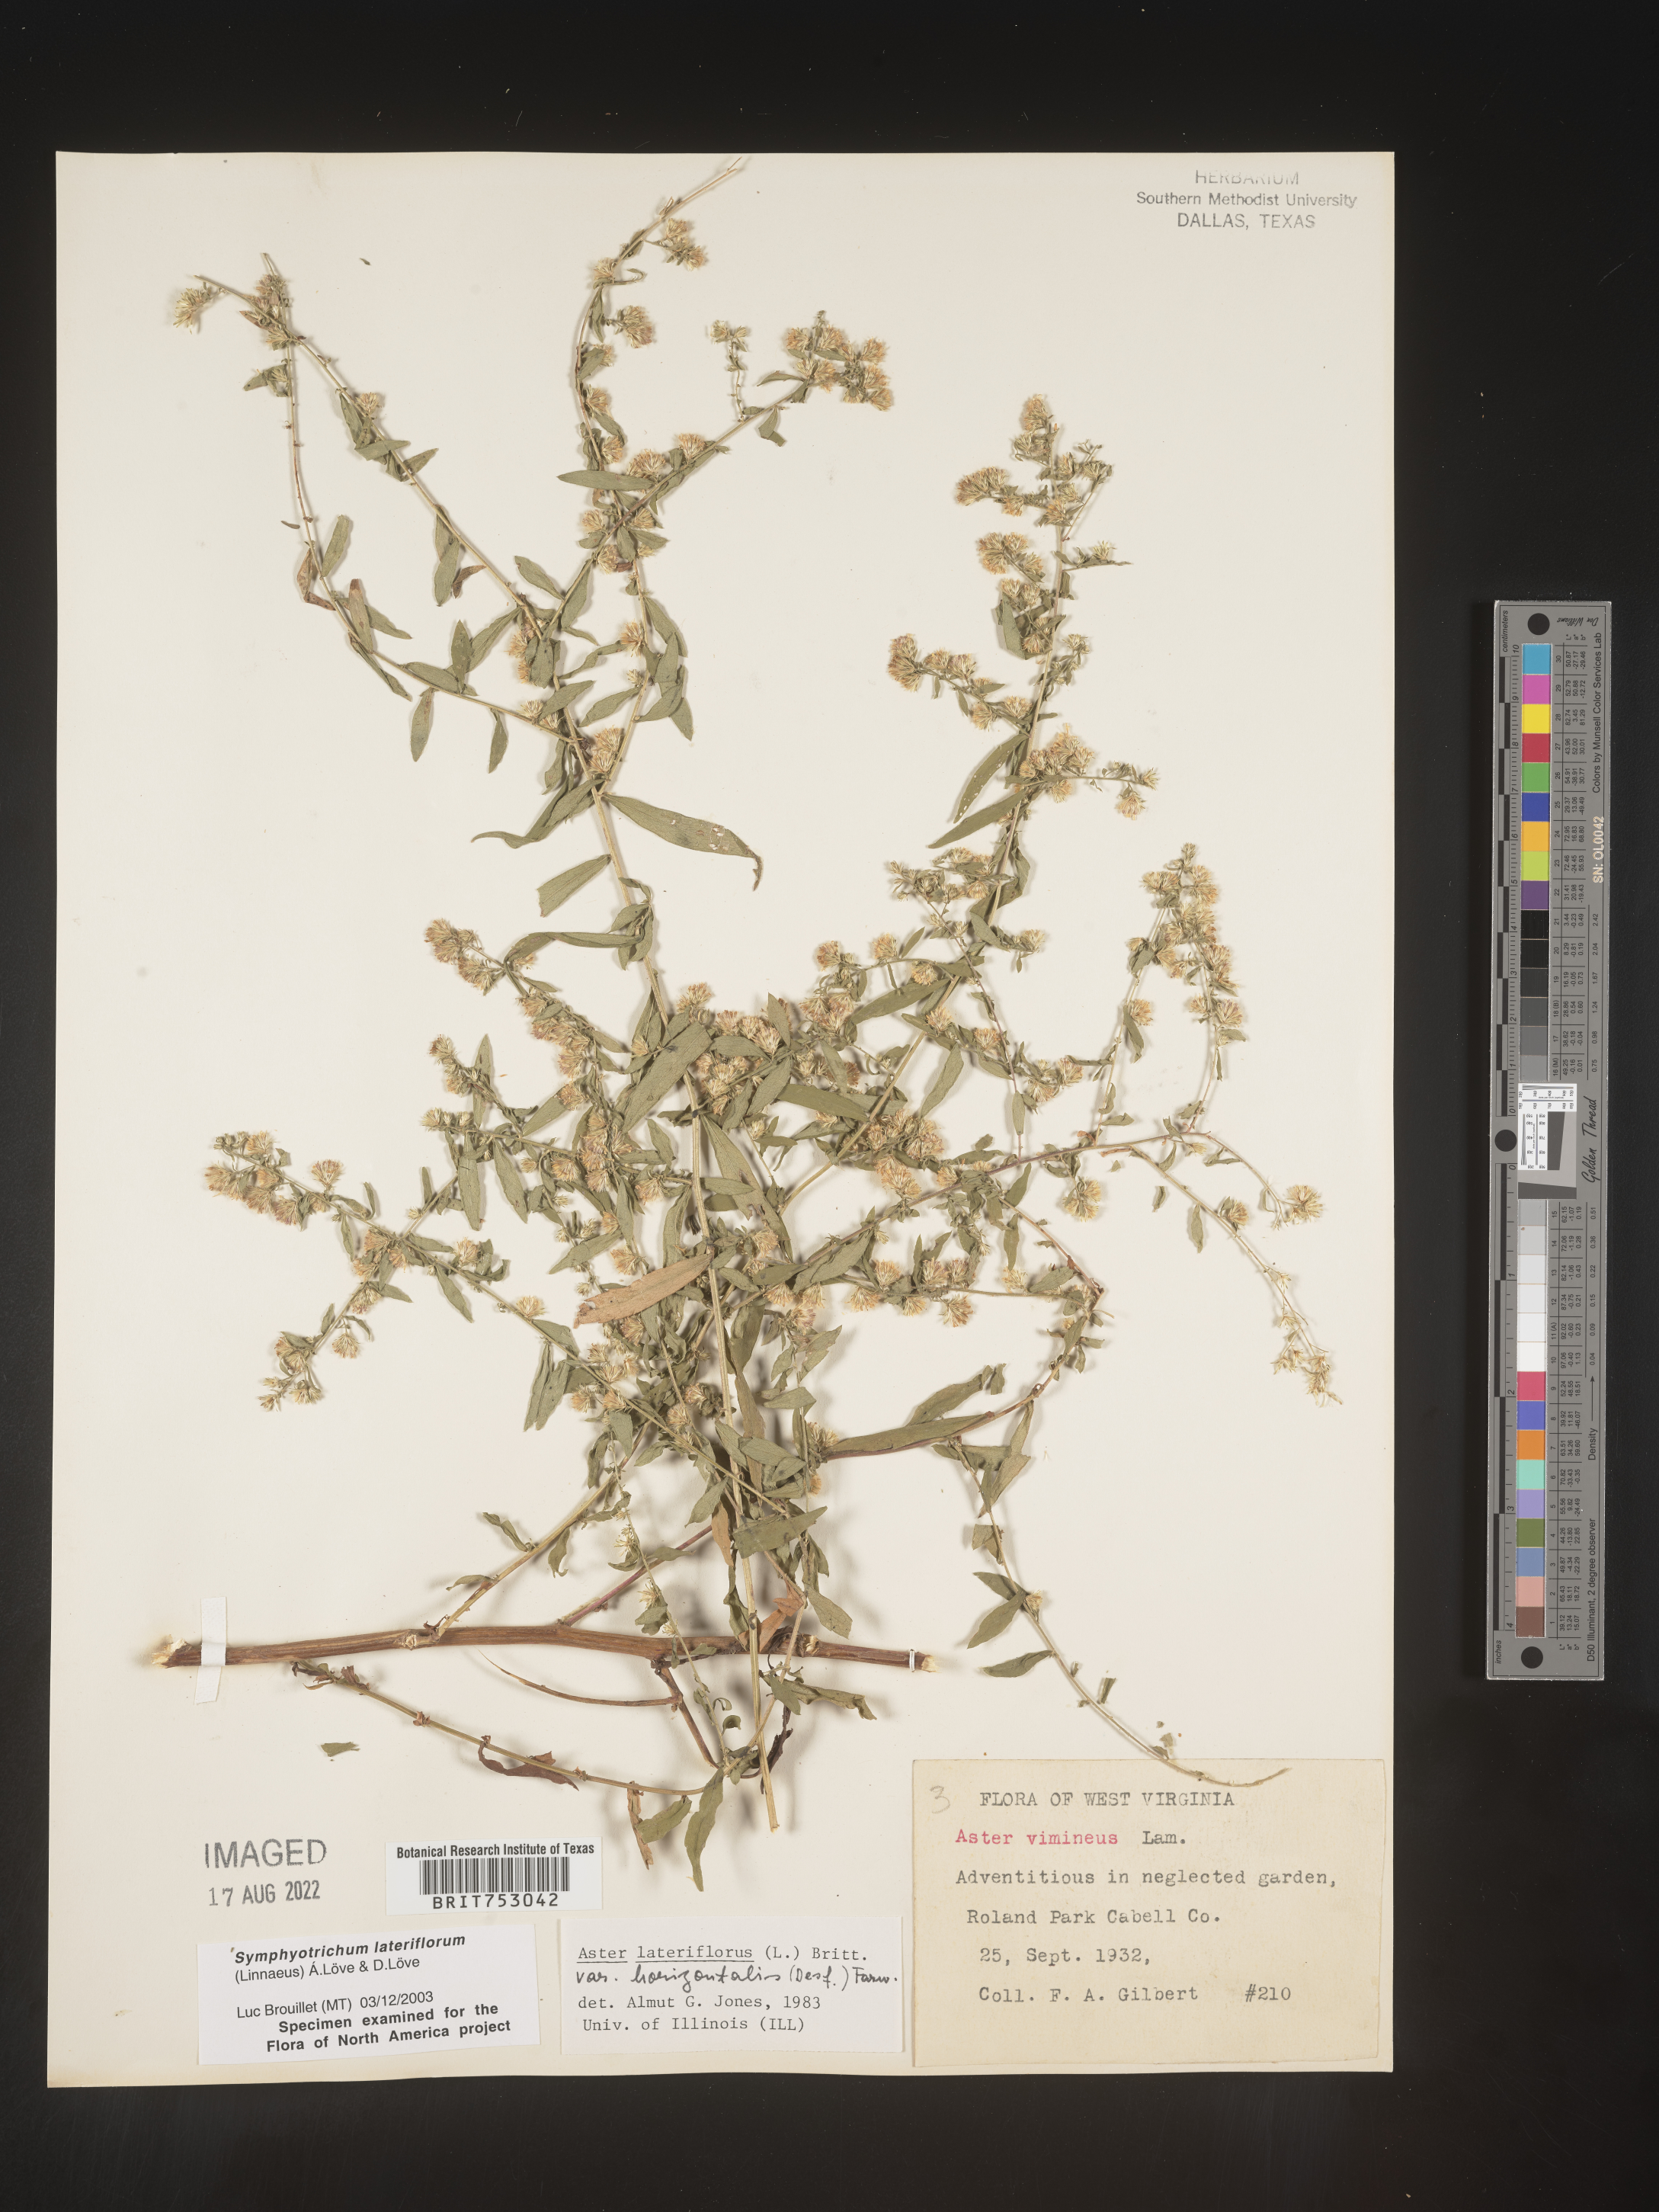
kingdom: Plantae
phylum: Tracheophyta
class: Magnoliopsida
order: Asterales
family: Asteraceae
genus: Symphyotrichum
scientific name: Symphyotrichum lateriflorum
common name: Calico aster
